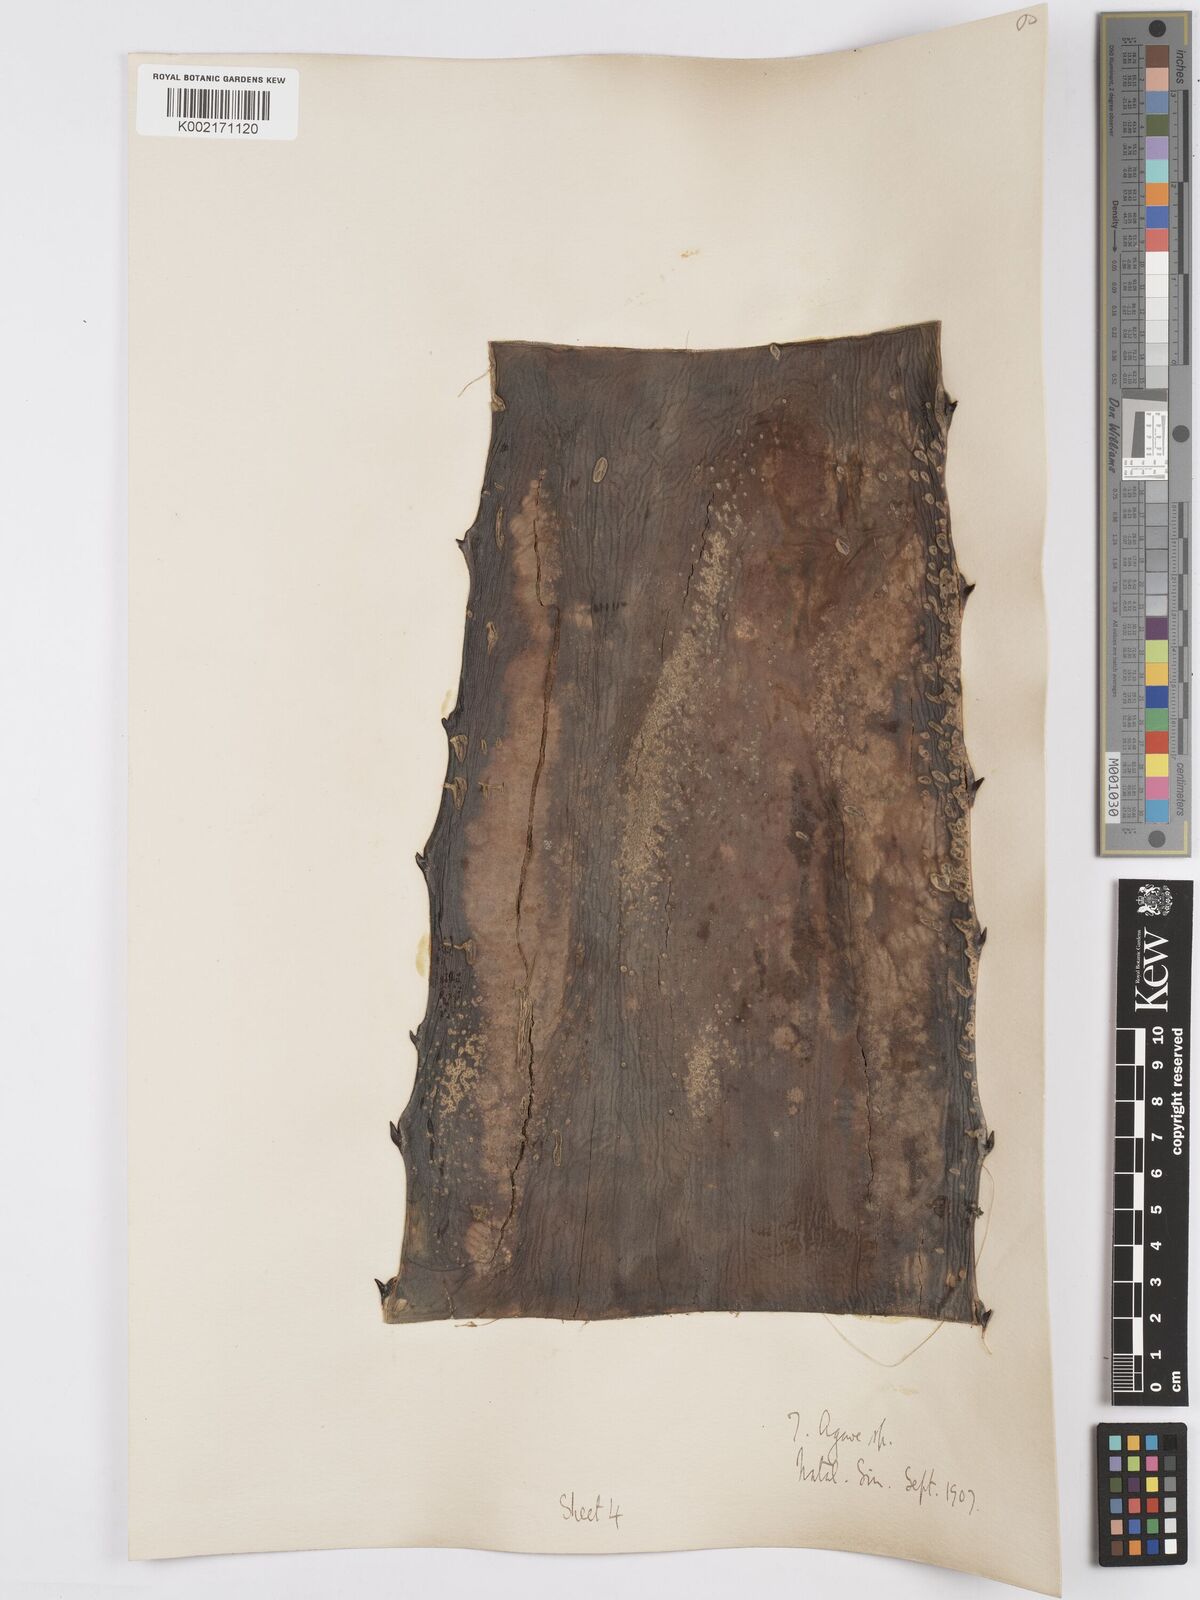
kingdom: Plantae
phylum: Tracheophyta
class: Liliopsida
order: Asparagales
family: Asparagaceae
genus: Agave
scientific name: Agave
